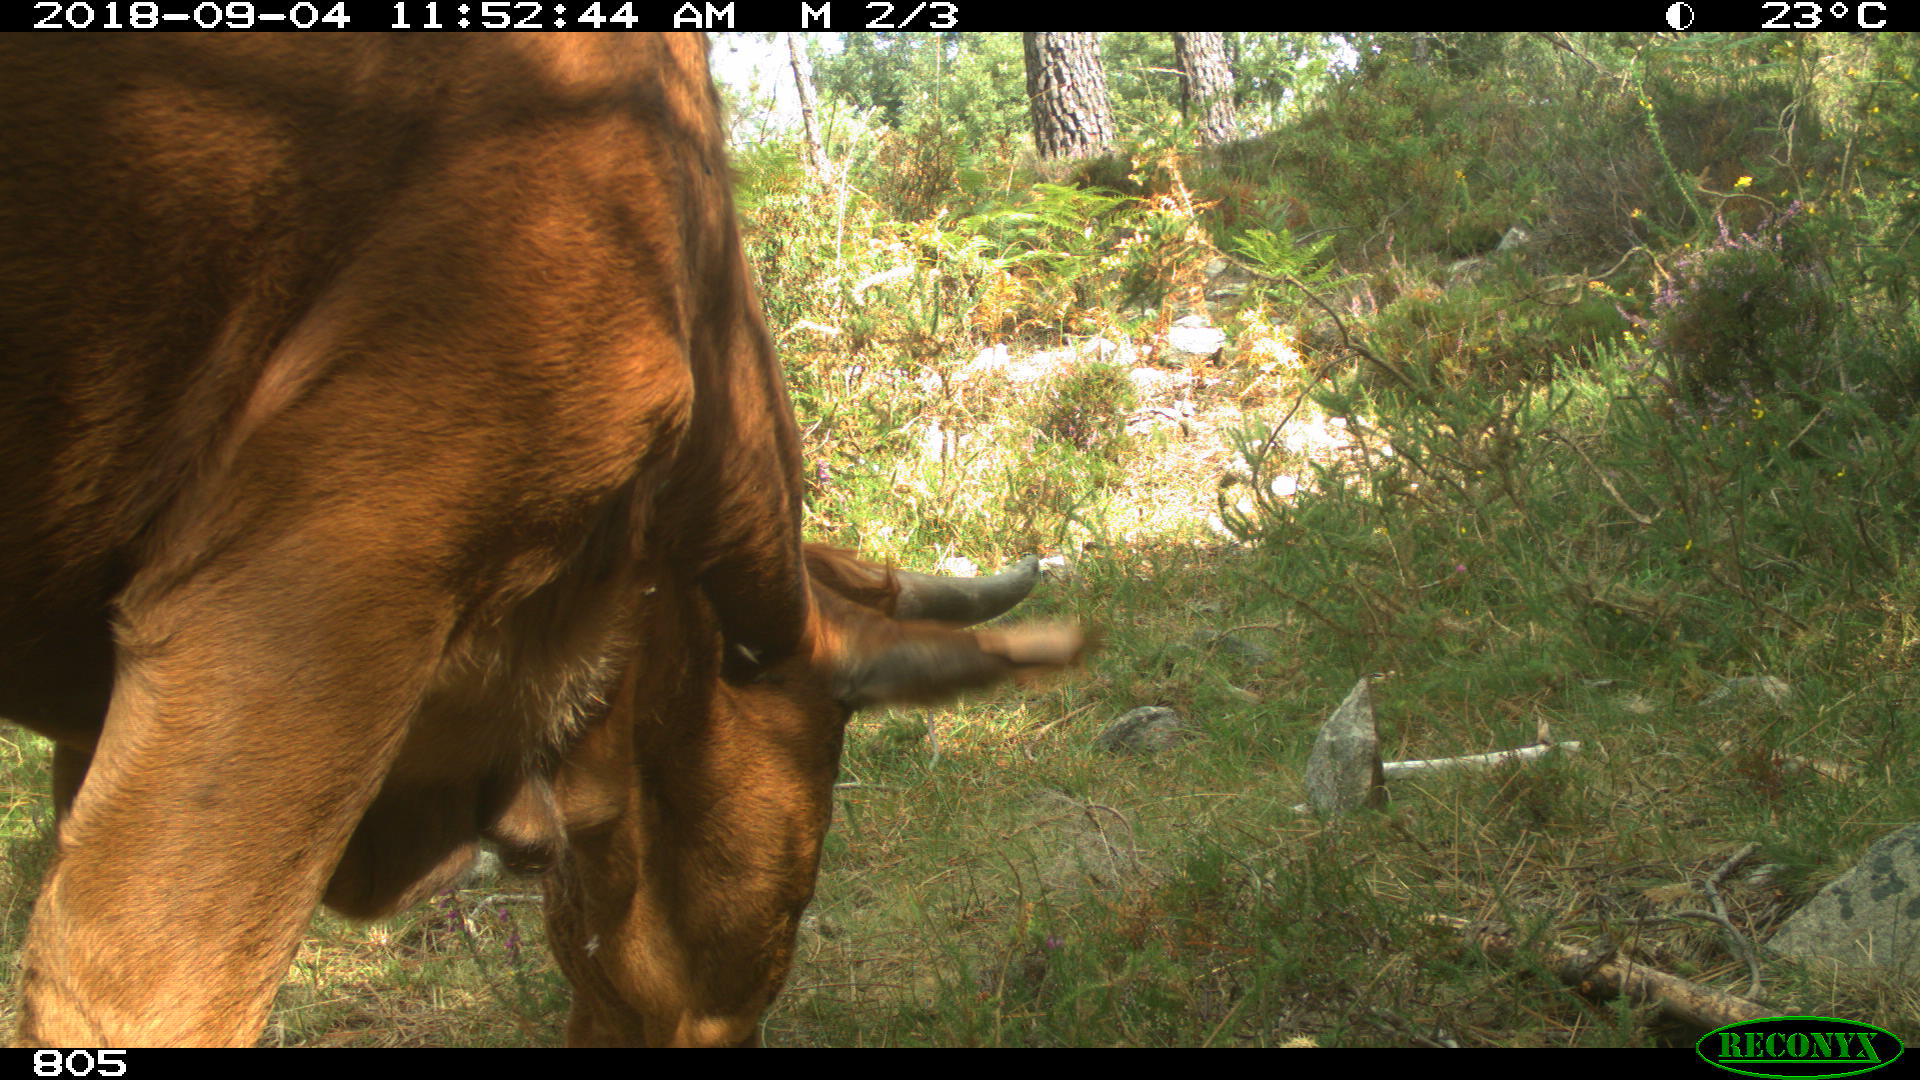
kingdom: Animalia
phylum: Chordata
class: Mammalia
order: Artiodactyla
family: Bovidae
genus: Bos
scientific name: Bos taurus
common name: Domesticated cattle
